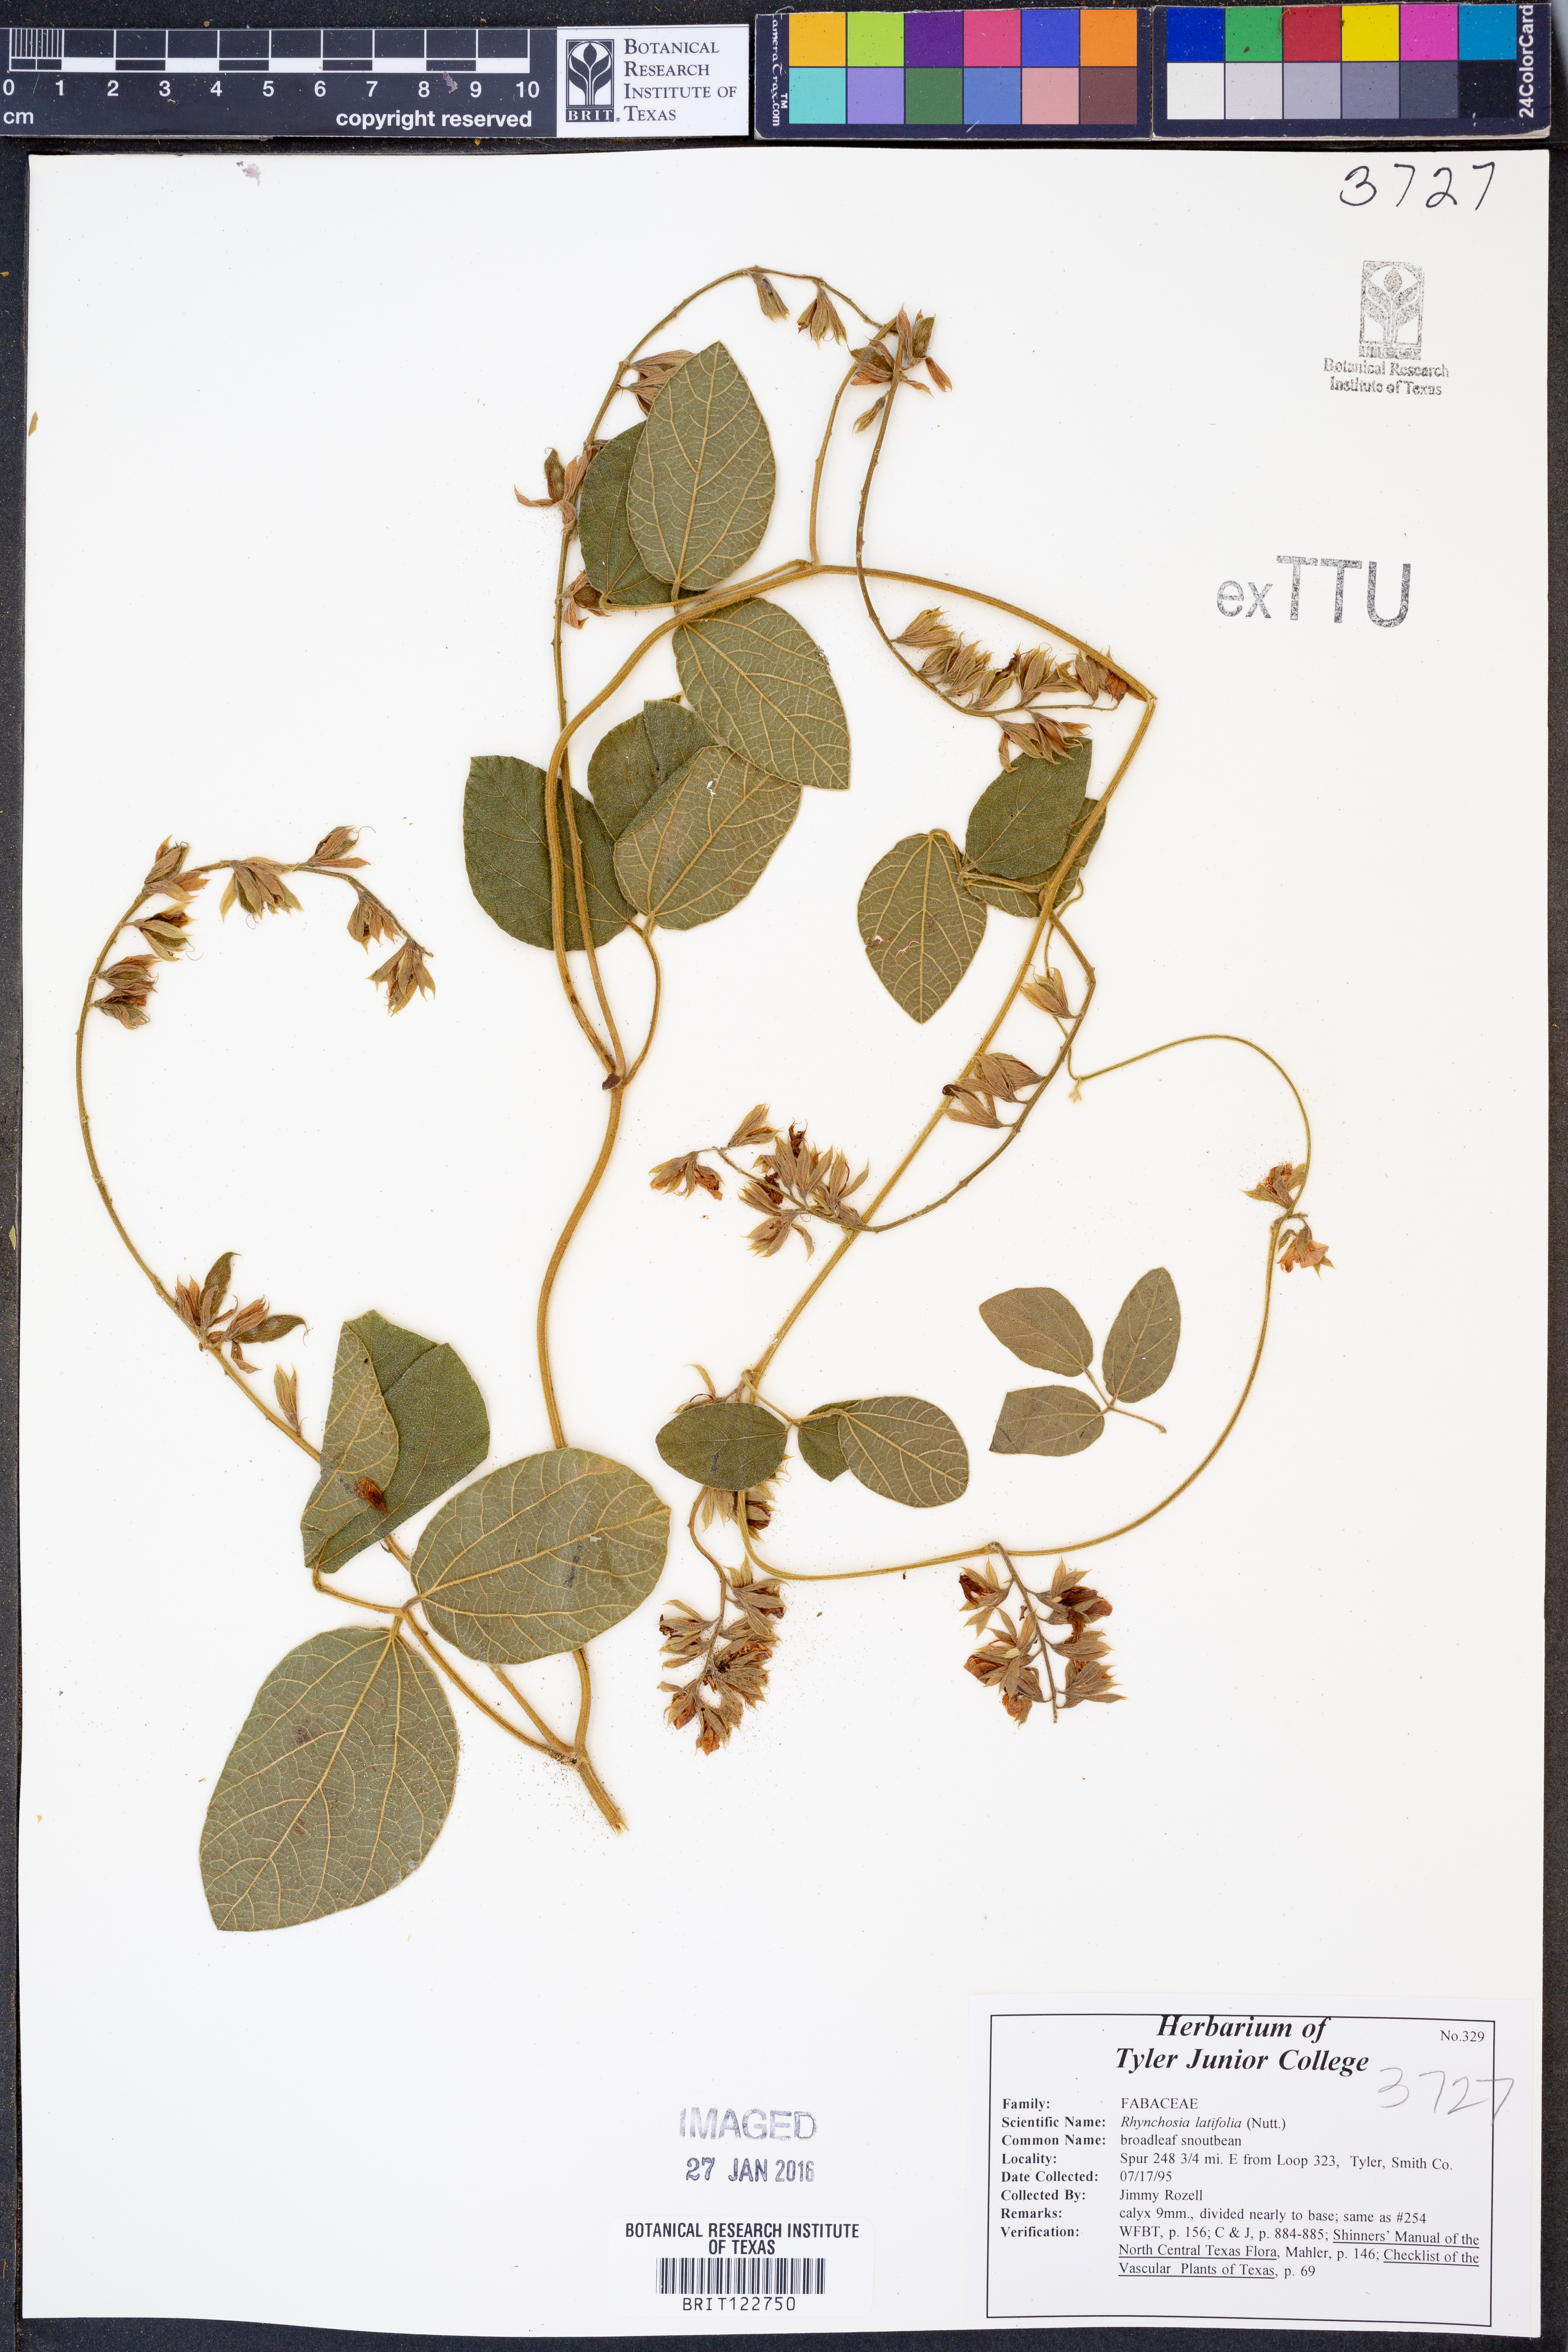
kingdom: Plantae
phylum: Tracheophyta
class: Magnoliopsida
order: Fabales
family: Fabaceae
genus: Rhynchosia
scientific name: Rhynchosia latifolia
